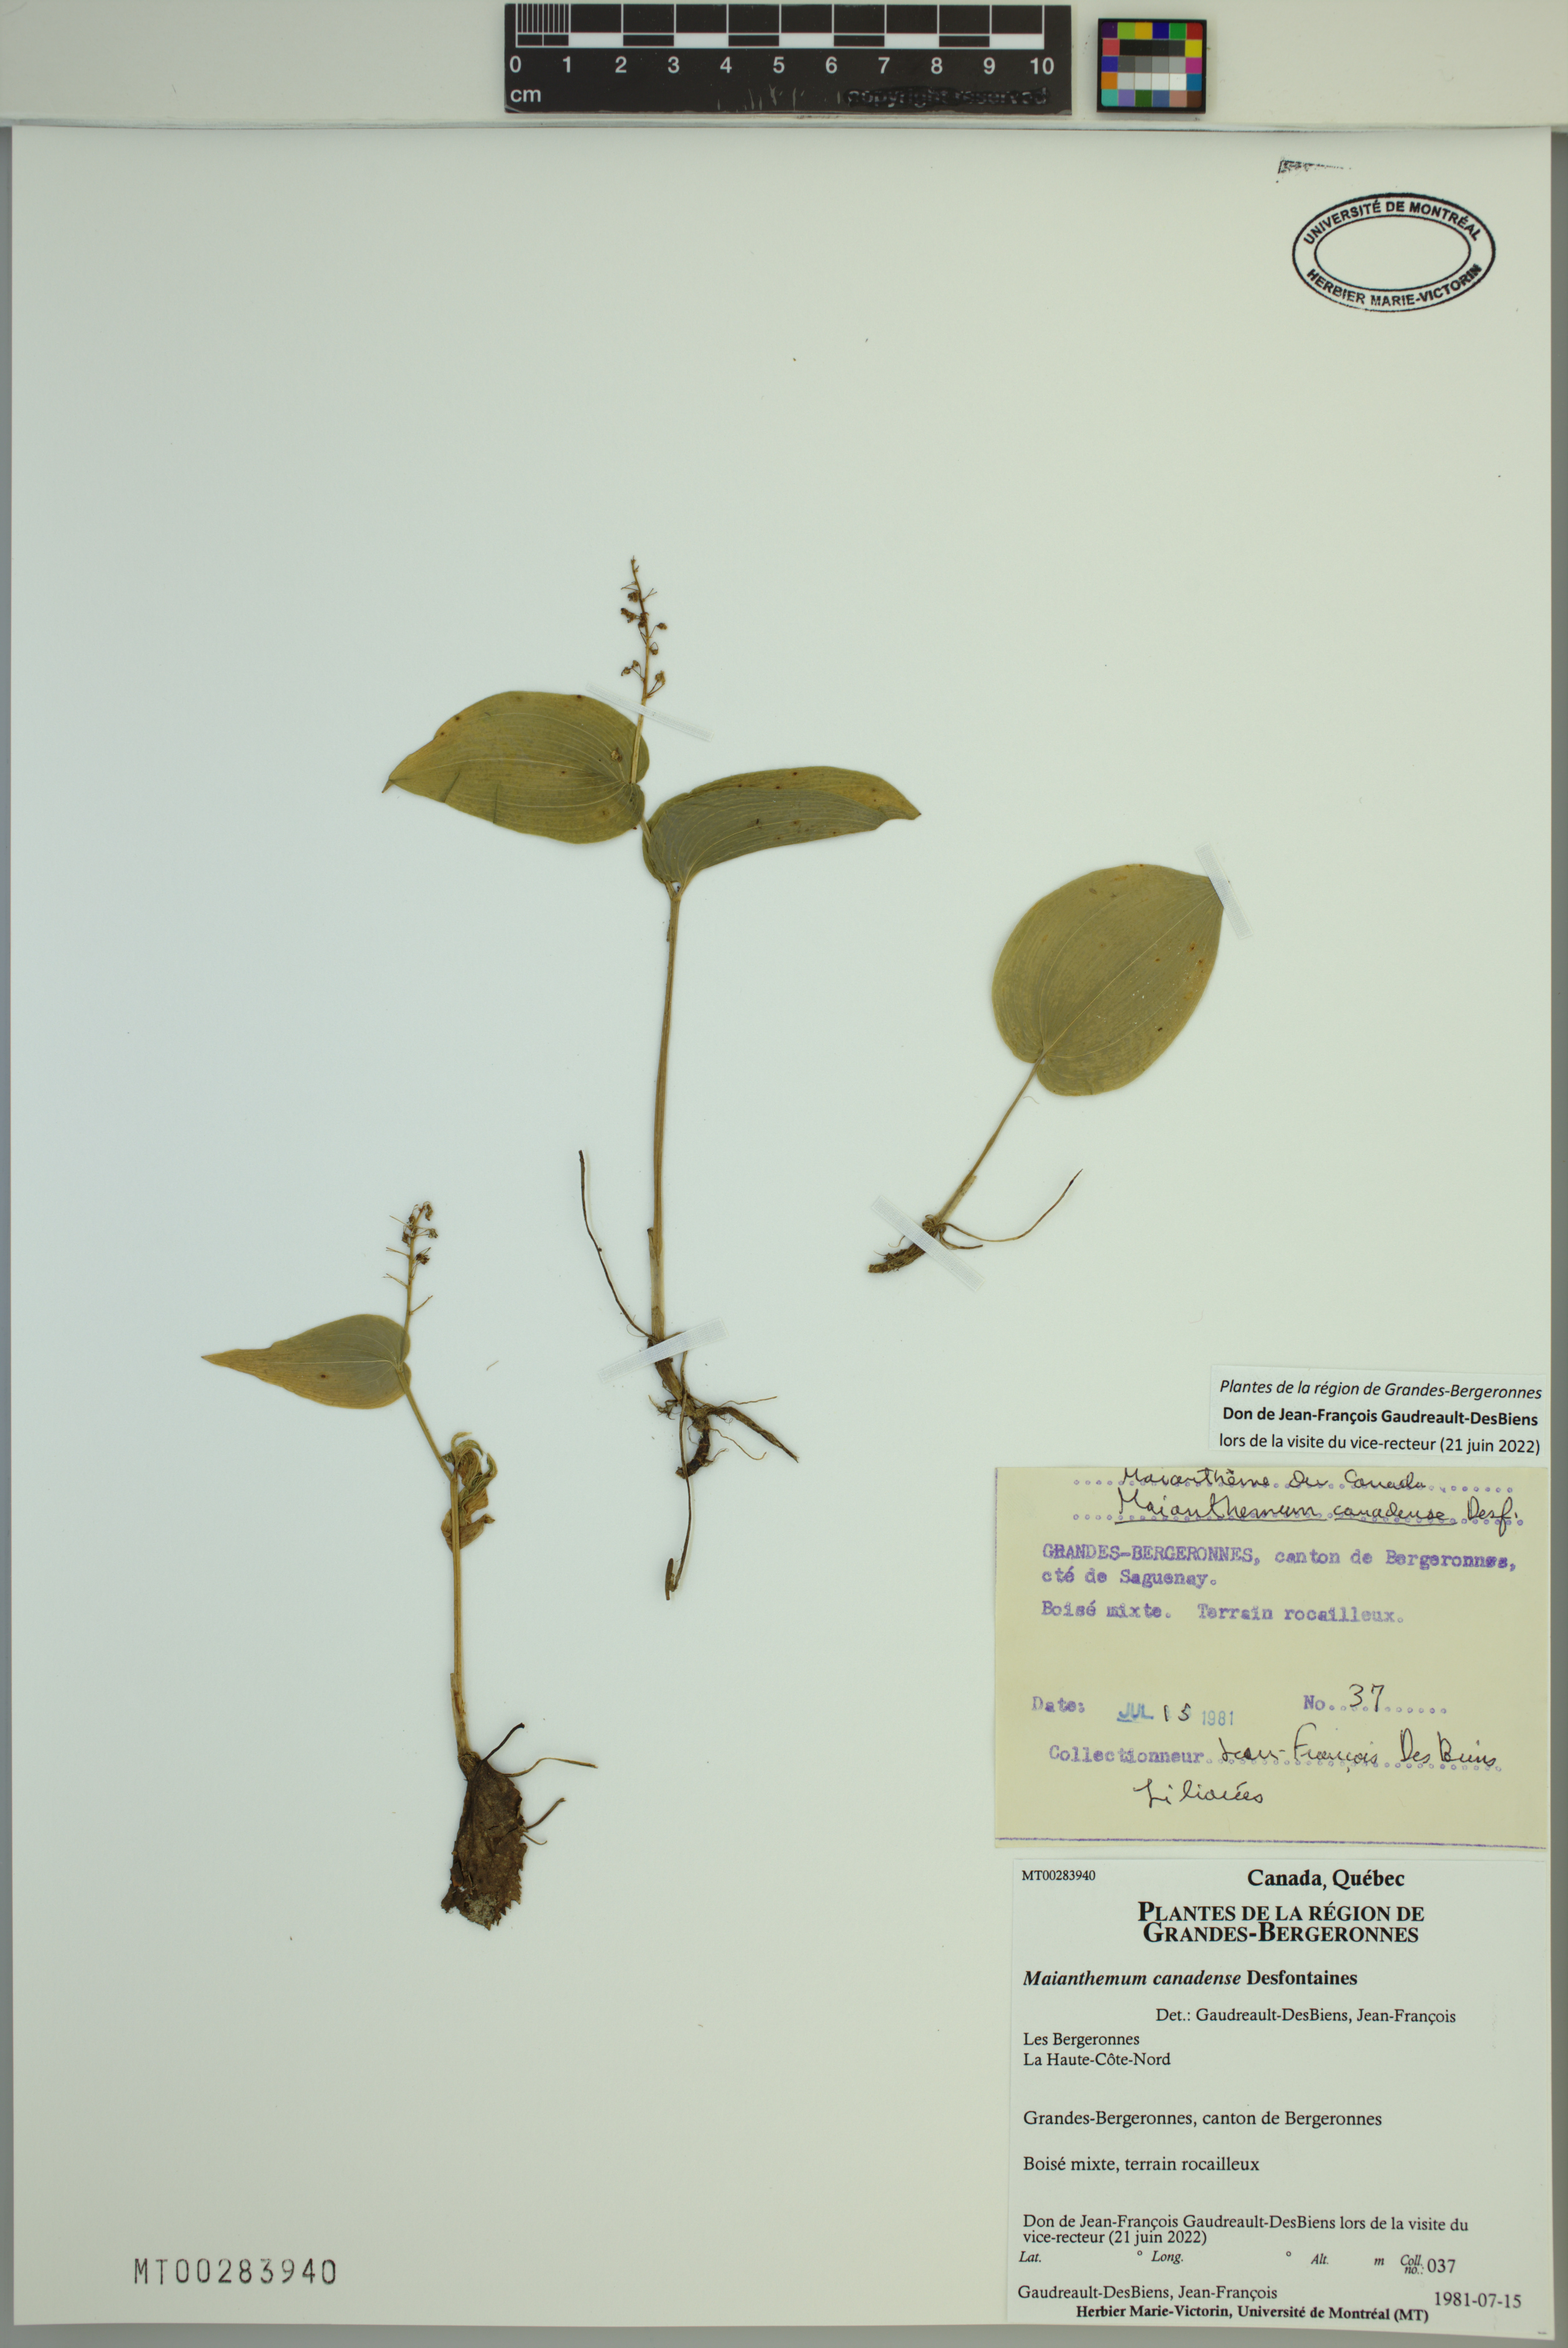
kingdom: Plantae
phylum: Tracheophyta
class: Liliopsida
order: Asparagales
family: Asparagaceae
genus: Maianthemum
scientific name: Maianthemum canadense
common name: False lily-of-the-valley
